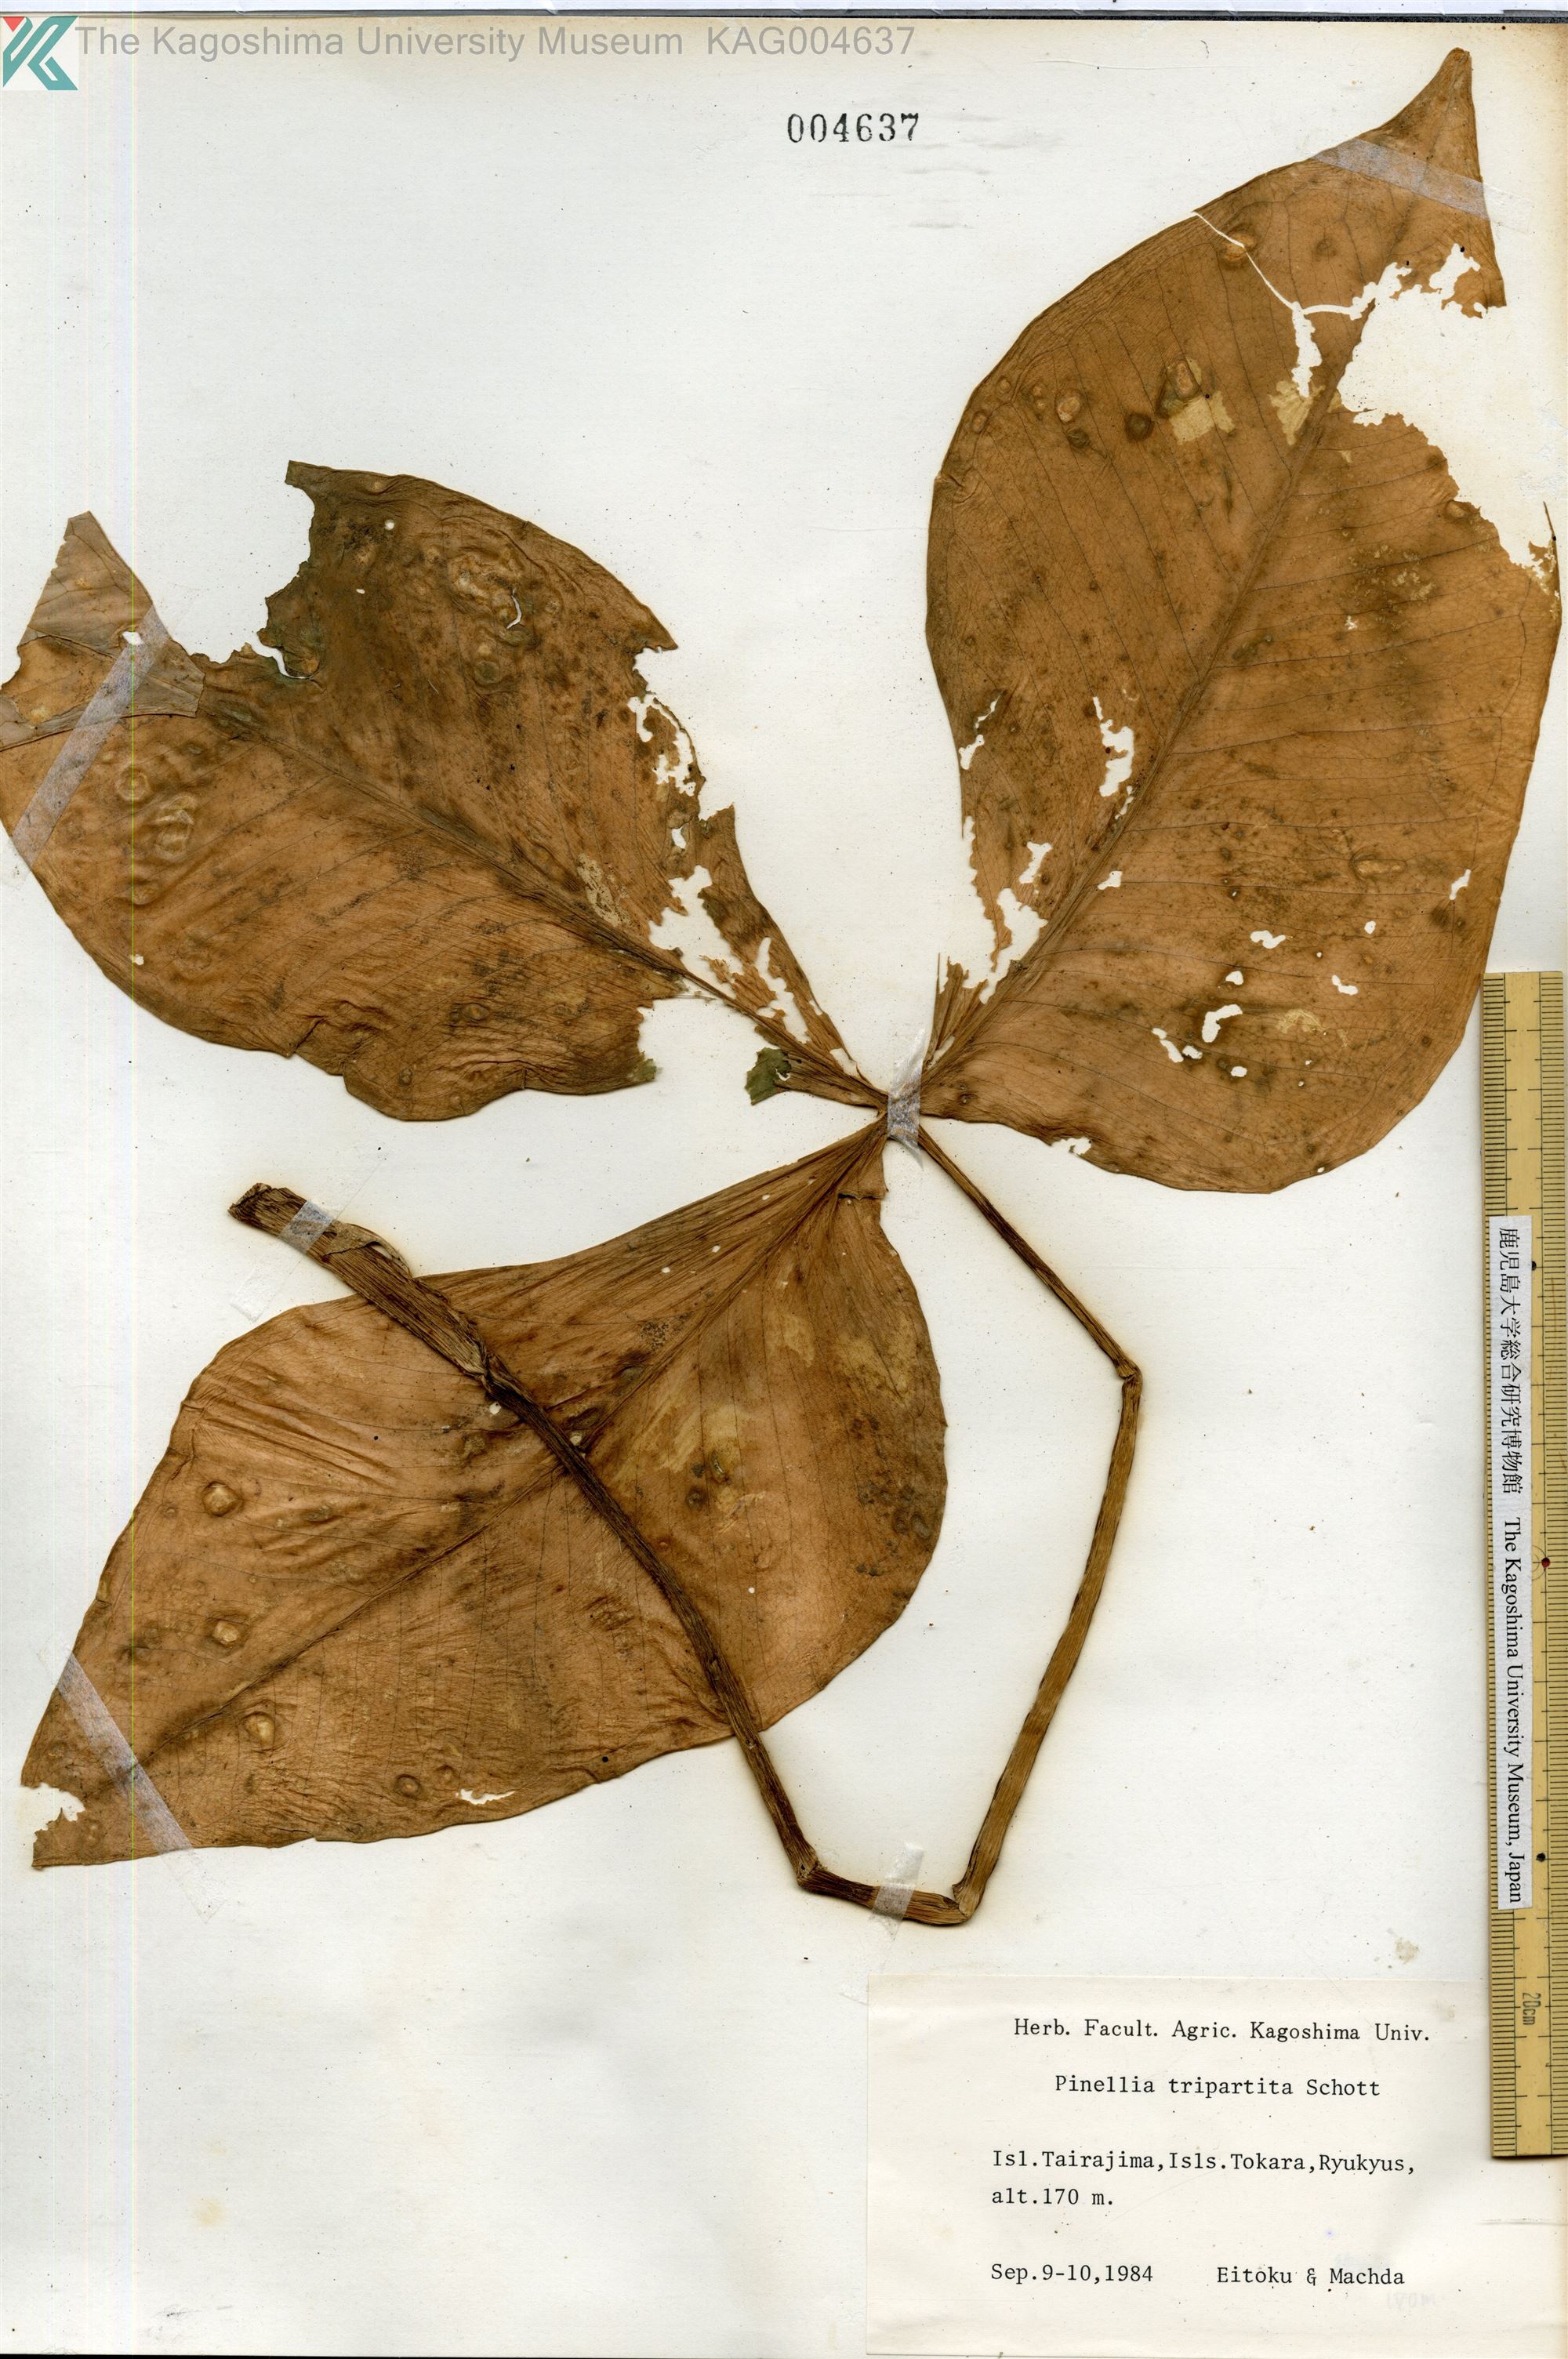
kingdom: Plantae
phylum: Tracheophyta
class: Liliopsida
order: Alismatales
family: Araceae
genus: Pinellia
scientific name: Pinellia tripartita
